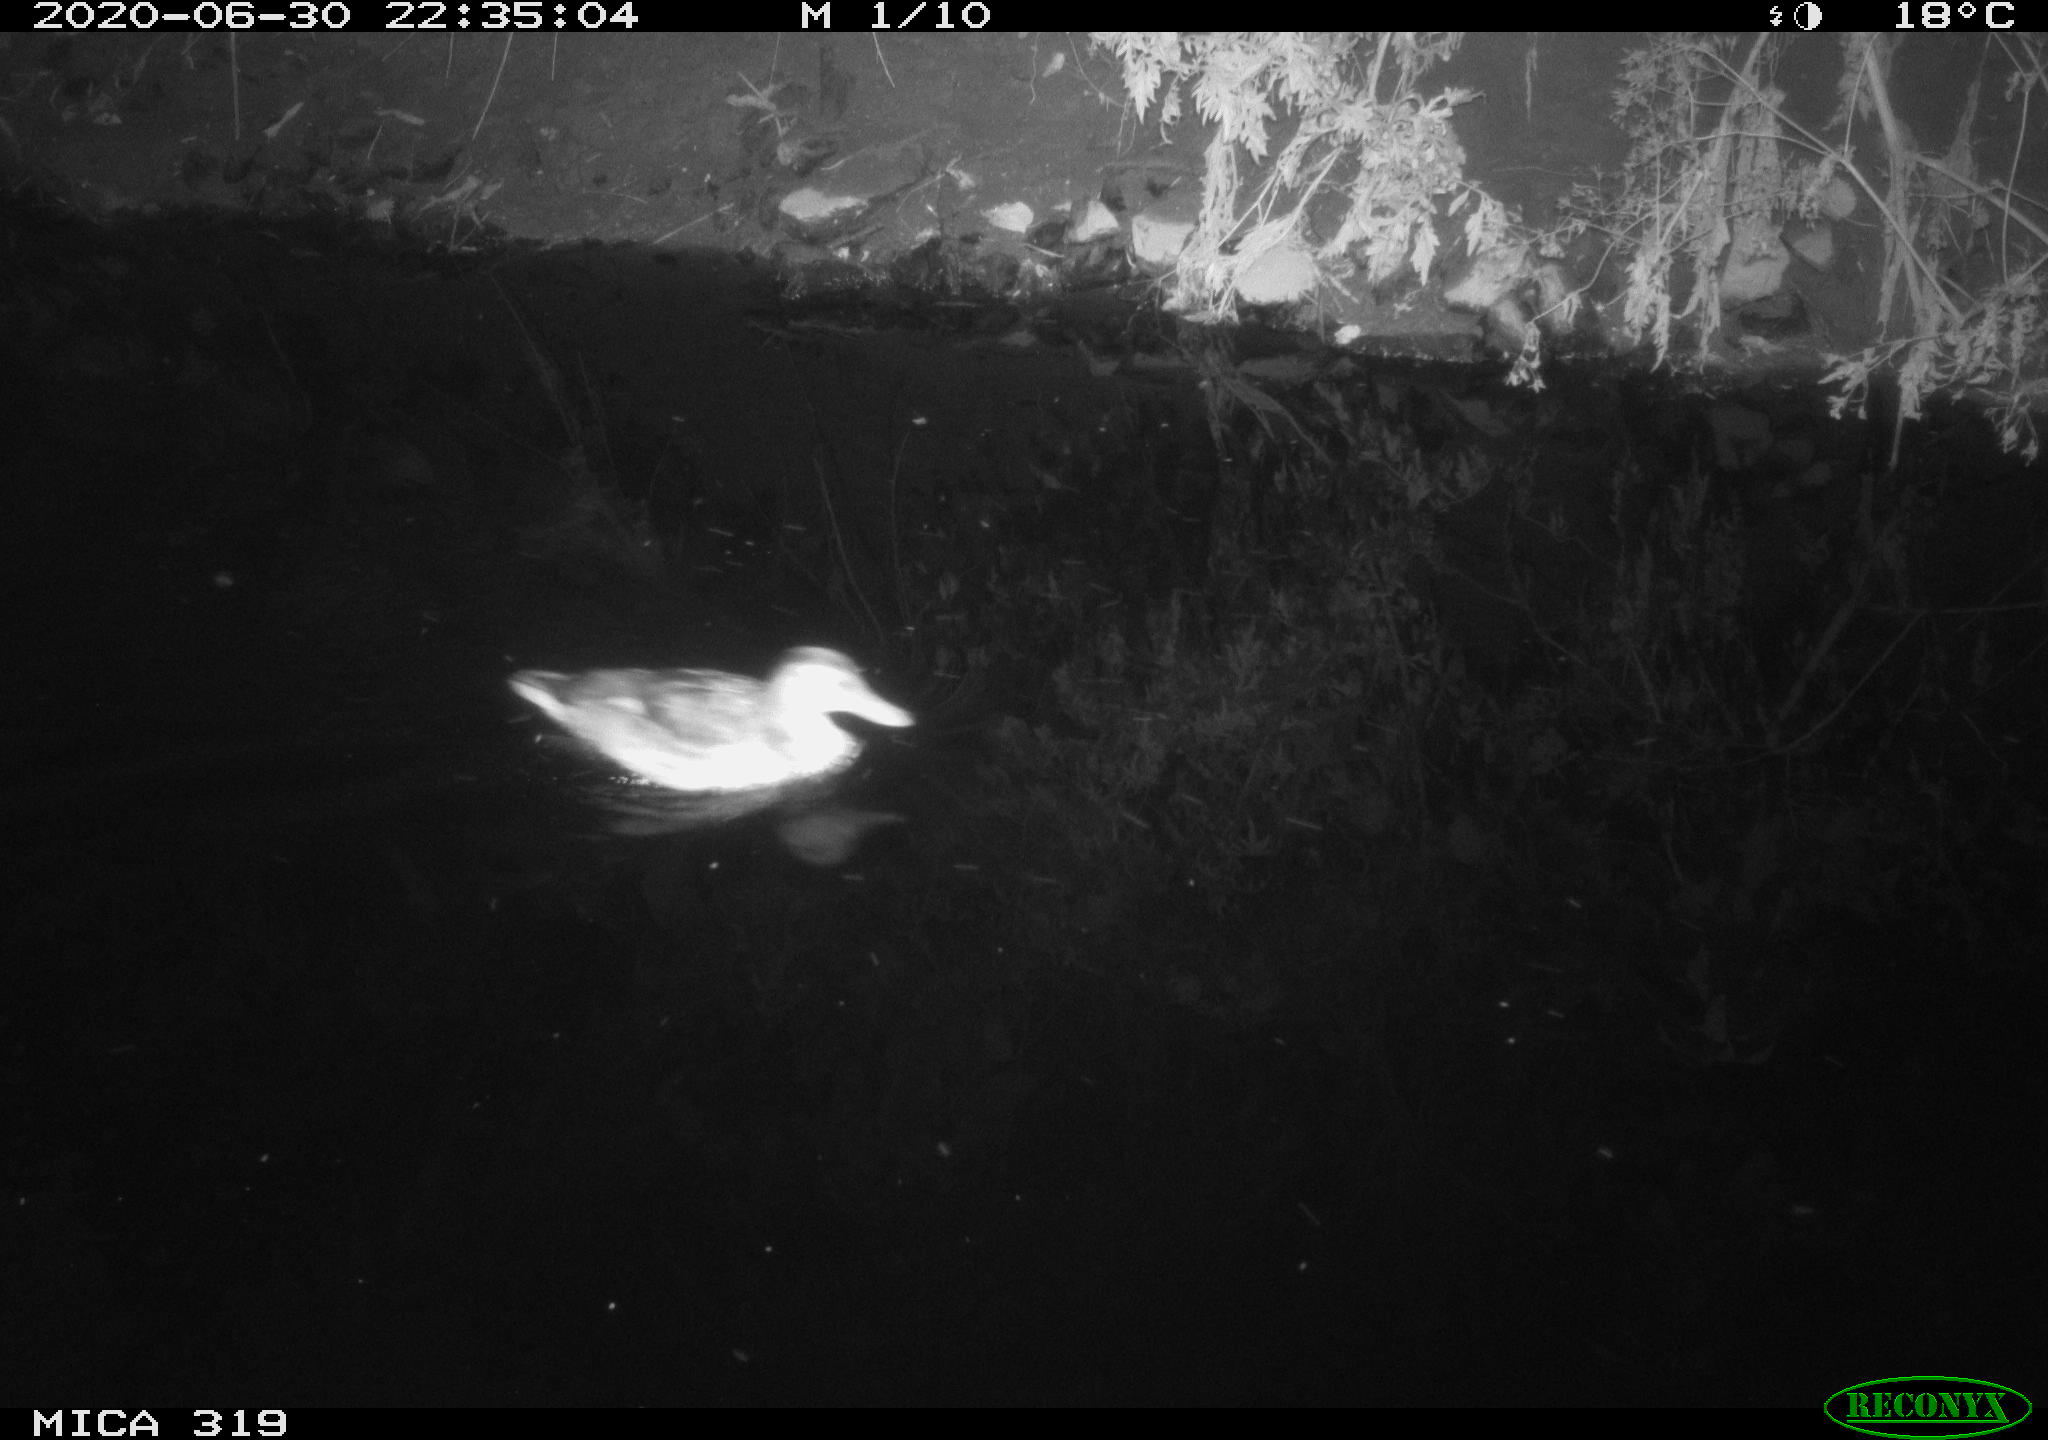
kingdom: Animalia
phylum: Chordata
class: Aves
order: Anseriformes
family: Anatidae
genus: Anas
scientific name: Anas platyrhynchos
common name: Mallard
